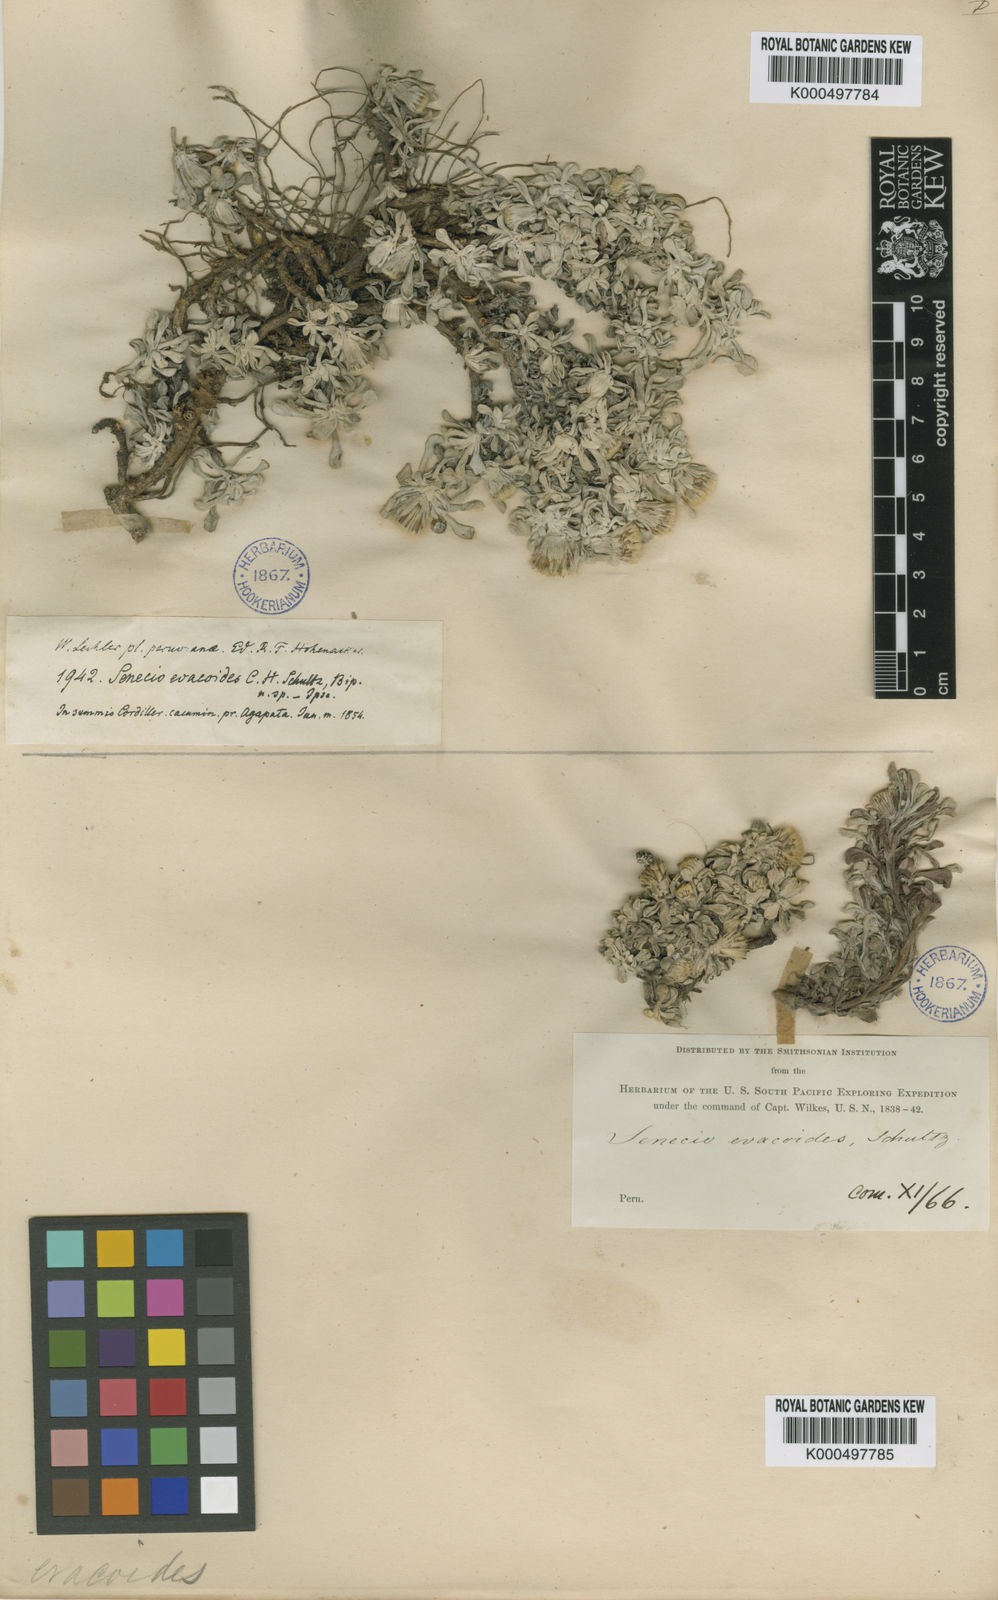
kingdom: Plantae
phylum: Tracheophyta
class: Magnoliopsida
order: Asterales
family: Asteraceae
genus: Senecio
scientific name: Senecio evacoides
